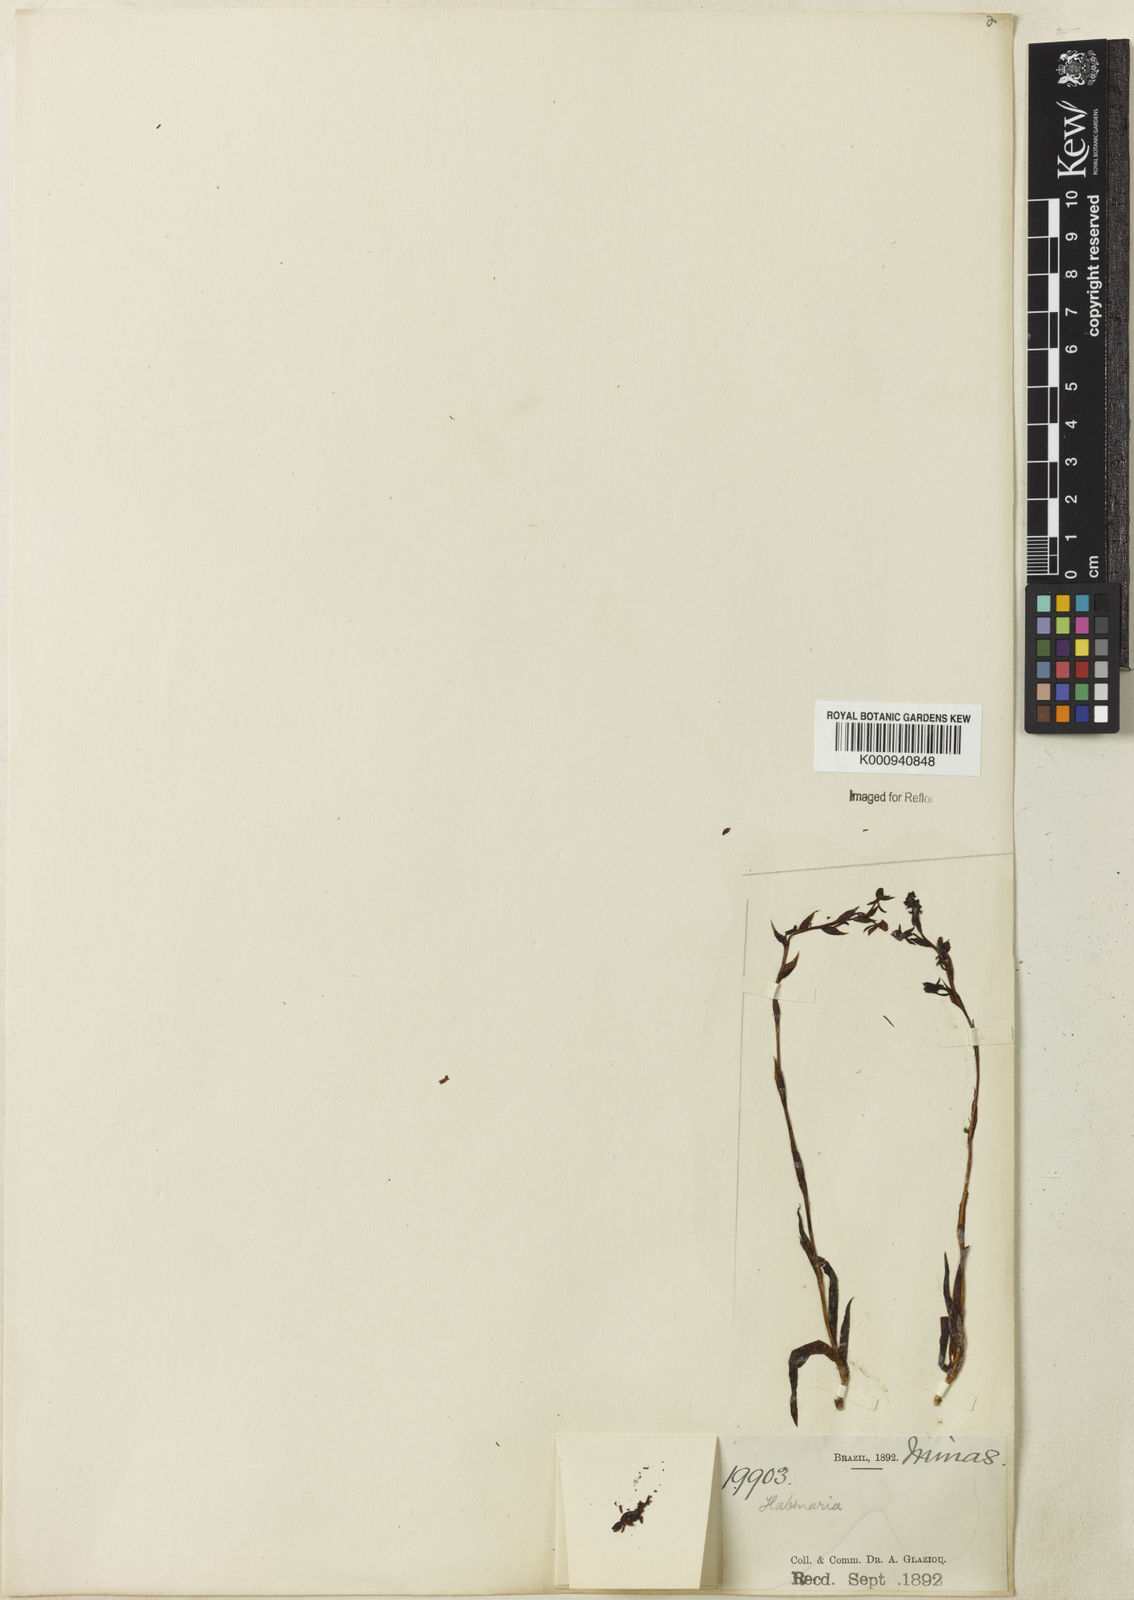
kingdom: Plantae
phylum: Tracheophyta
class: Liliopsida
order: Asparagales
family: Orchidaceae
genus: Habenaria
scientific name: Habenaria
